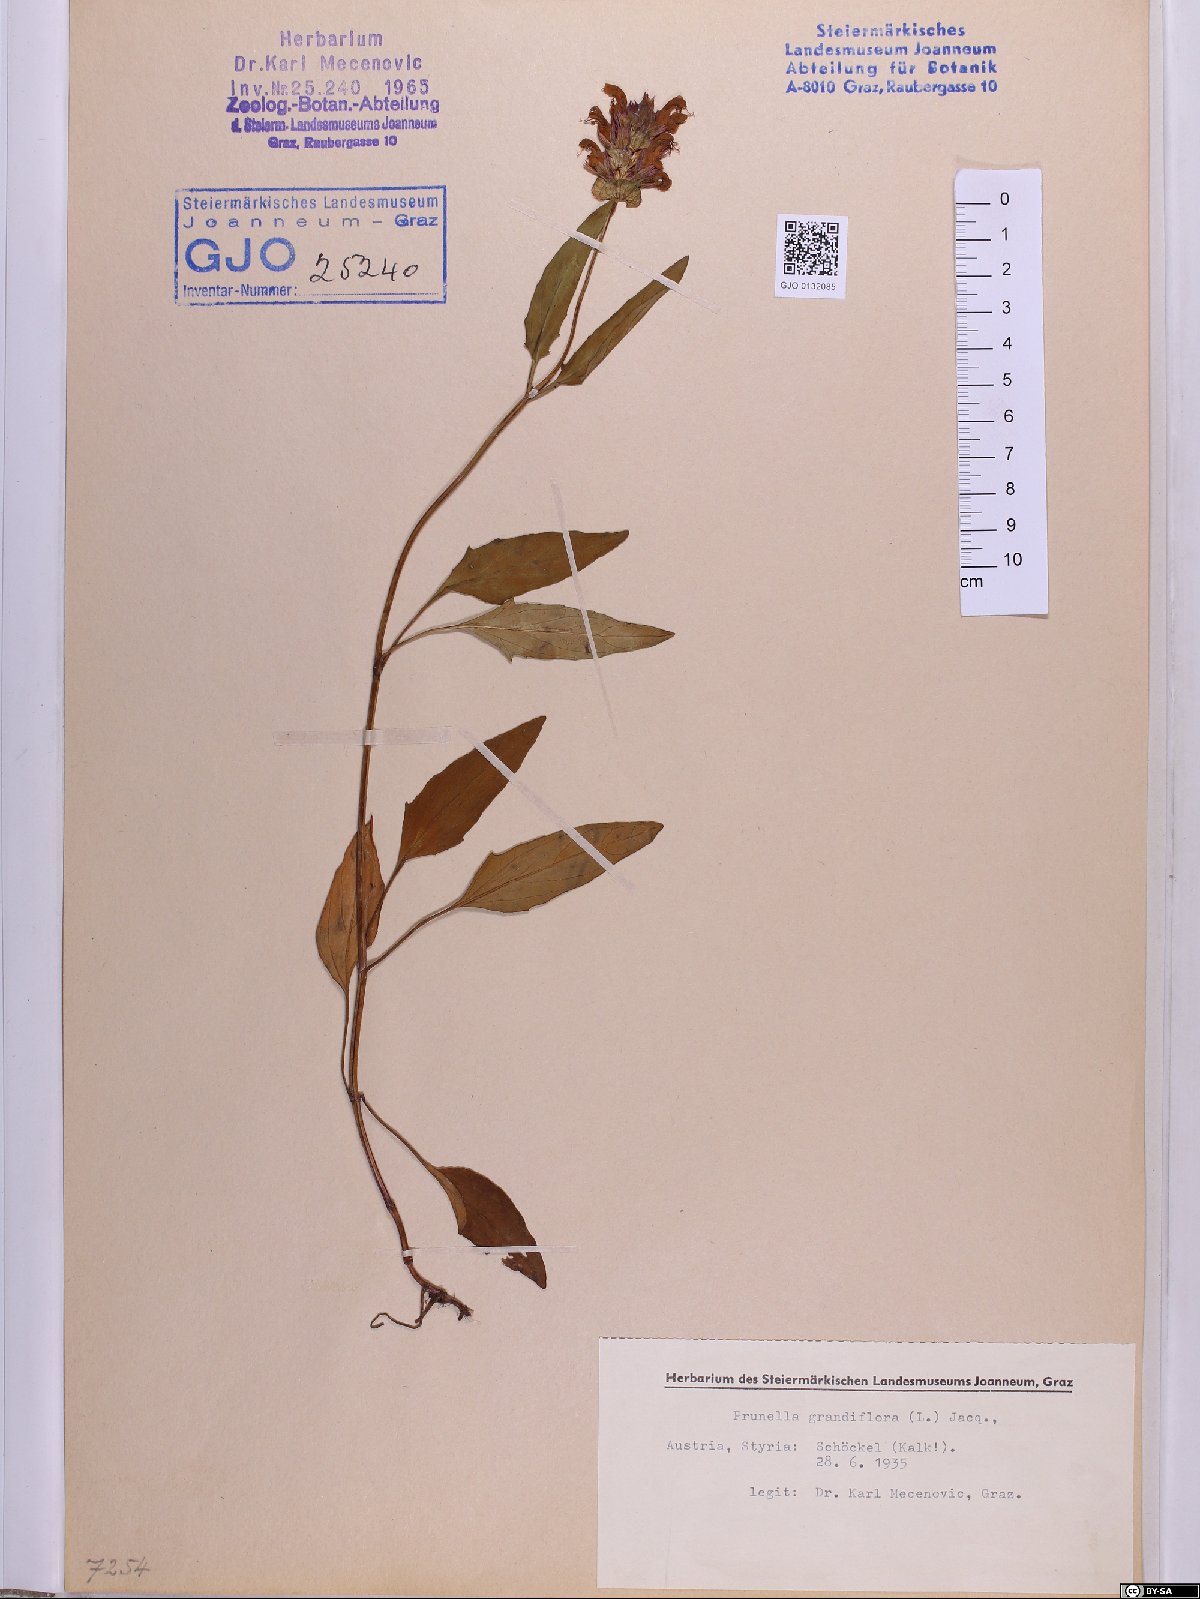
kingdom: Plantae
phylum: Tracheophyta
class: Magnoliopsida
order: Lamiales
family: Lamiaceae
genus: Prunella
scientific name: Prunella grandiflora
